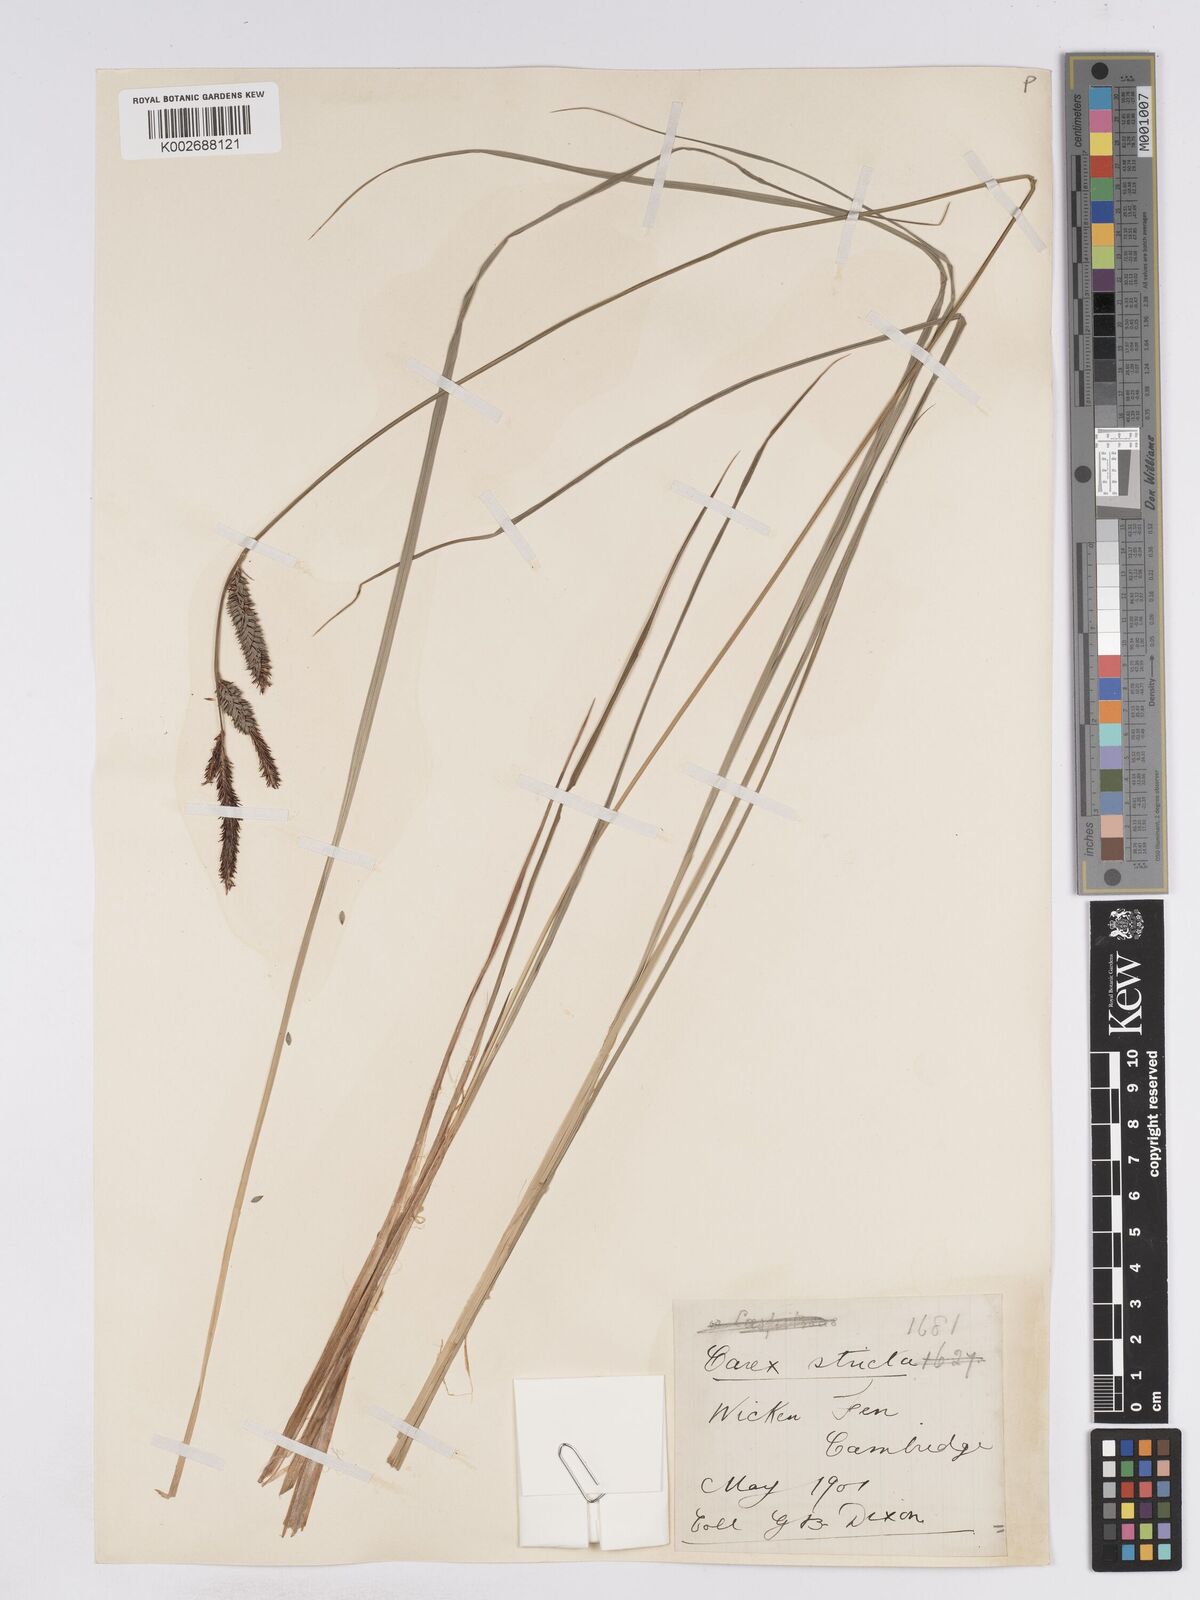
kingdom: Plantae
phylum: Tracheophyta
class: Liliopsida
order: Poales
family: Cyperaceae
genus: Carex
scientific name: Carex elata
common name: Tufted sedge
